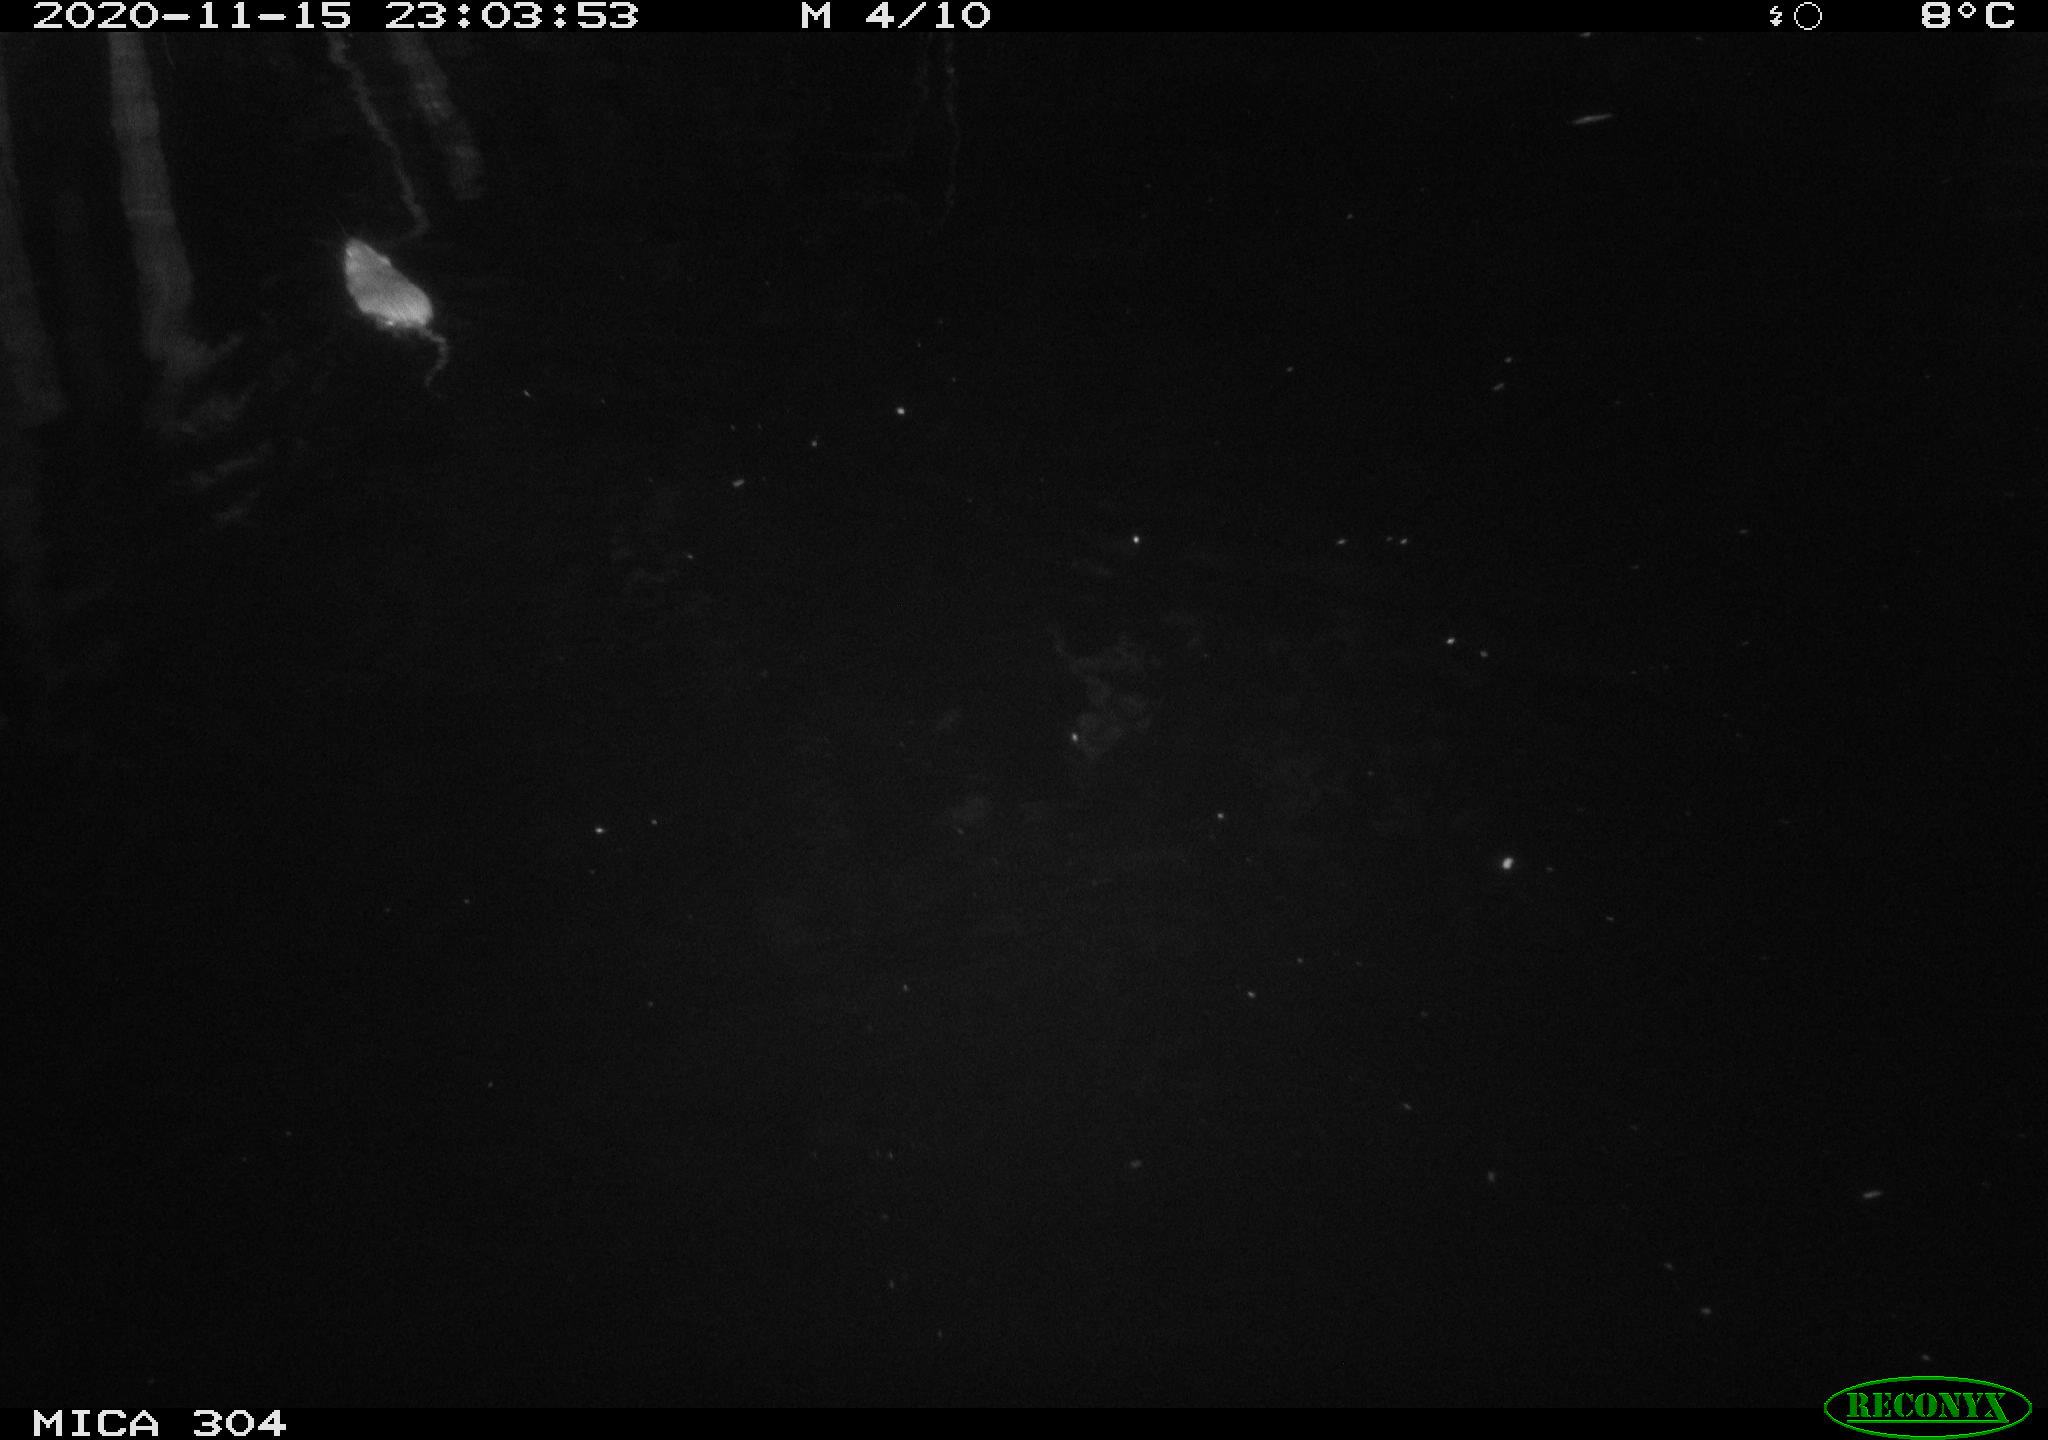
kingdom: Animalia
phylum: Chordata
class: Mammalia
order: Rodentia
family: Muridae
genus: Rattus
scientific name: Rattus norvegicus
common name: Brown rat
